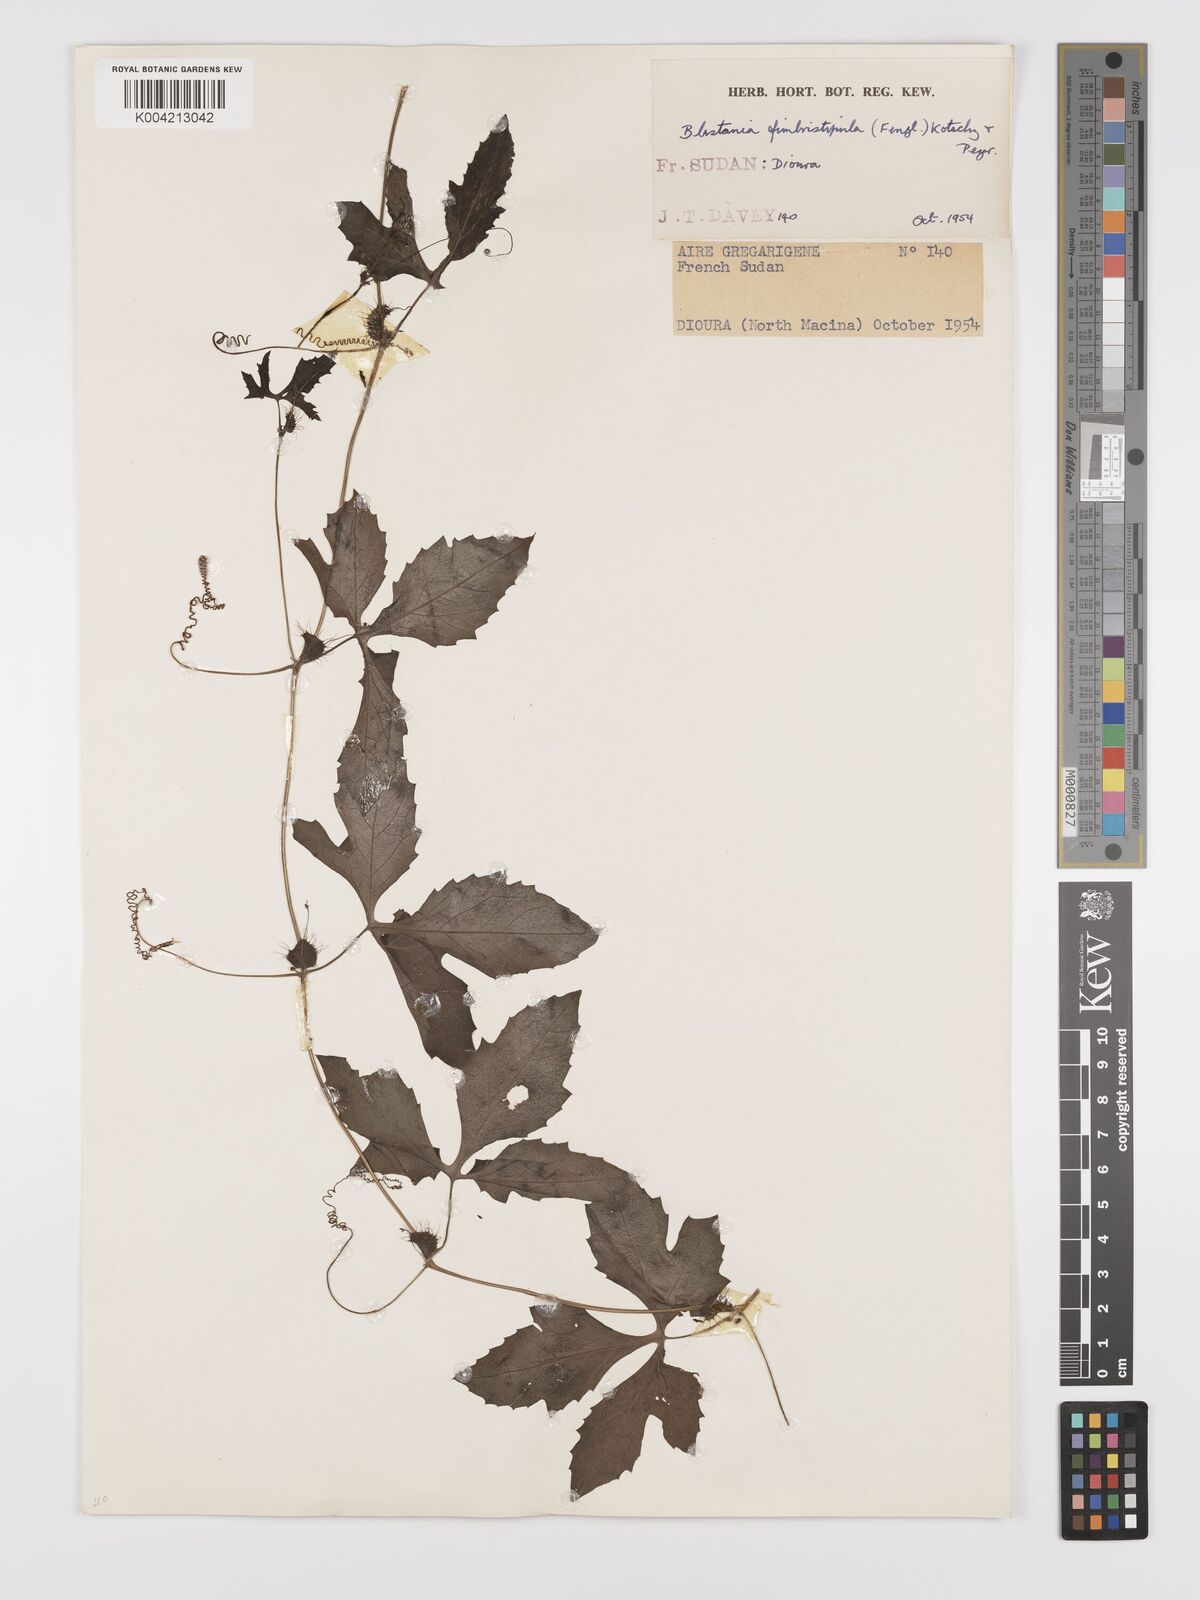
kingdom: Plantae
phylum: Tracheophyta
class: Magnoliopsida
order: Cucurbitales
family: Cucurbitaceae
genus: Blastania
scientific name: Blastania cerasiformis
